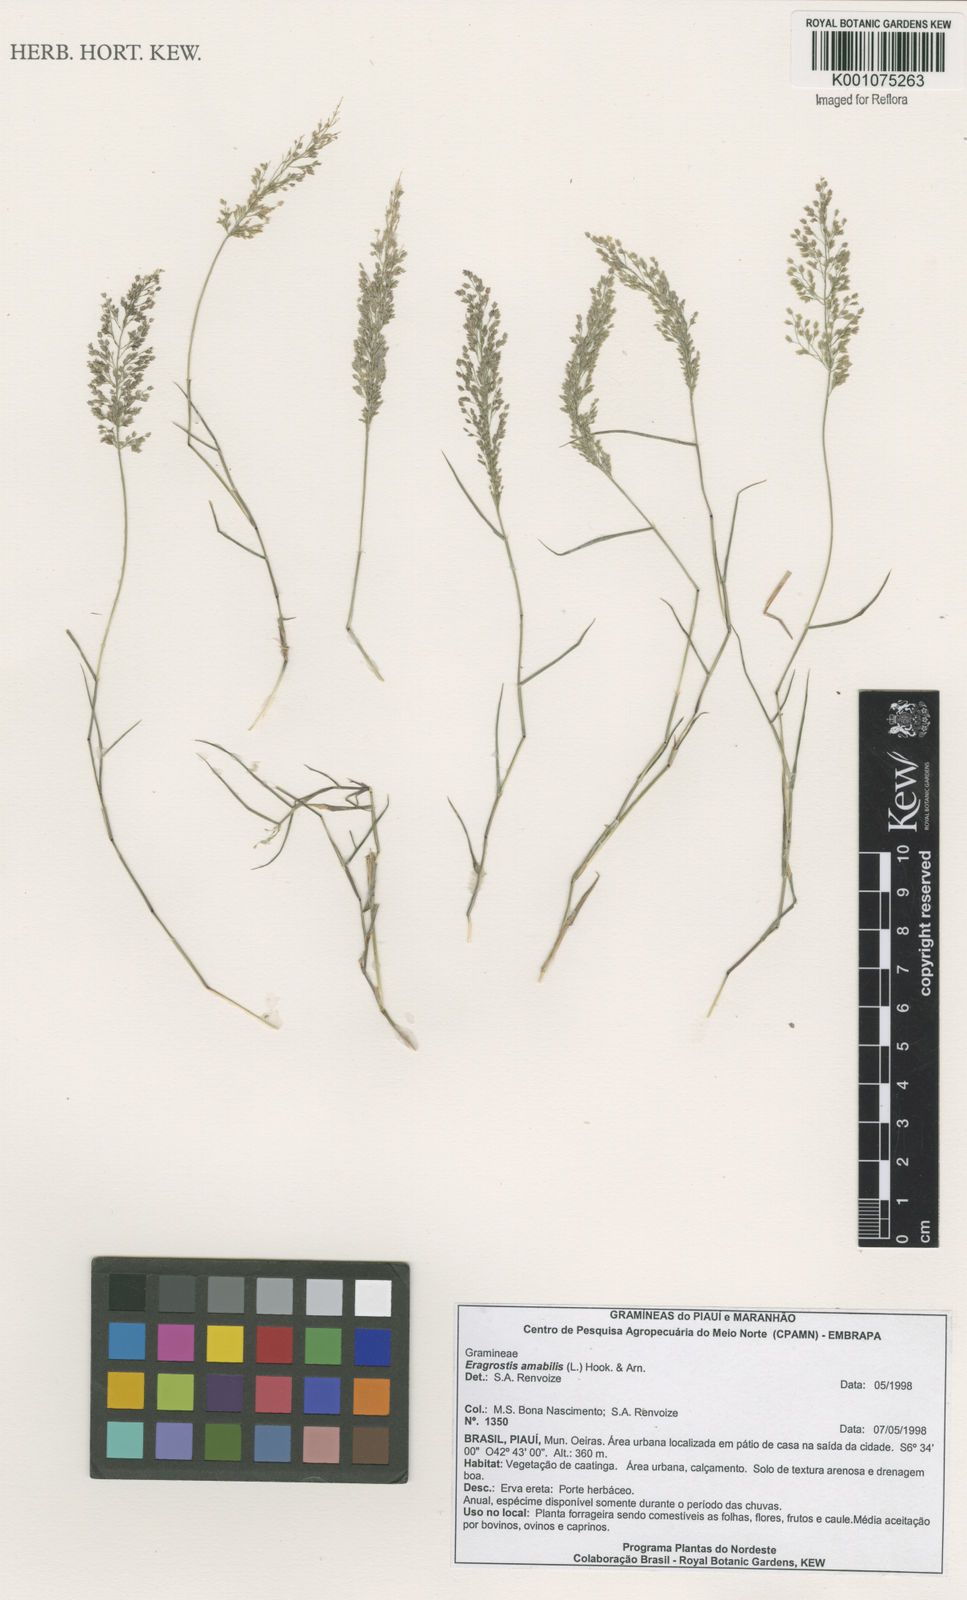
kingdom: Plantae
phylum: Tracheophyta
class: Liliopsida
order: Poales
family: Poaceae
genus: Eragrostis
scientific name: Eragrostis tenella
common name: Japanese lovegrass
